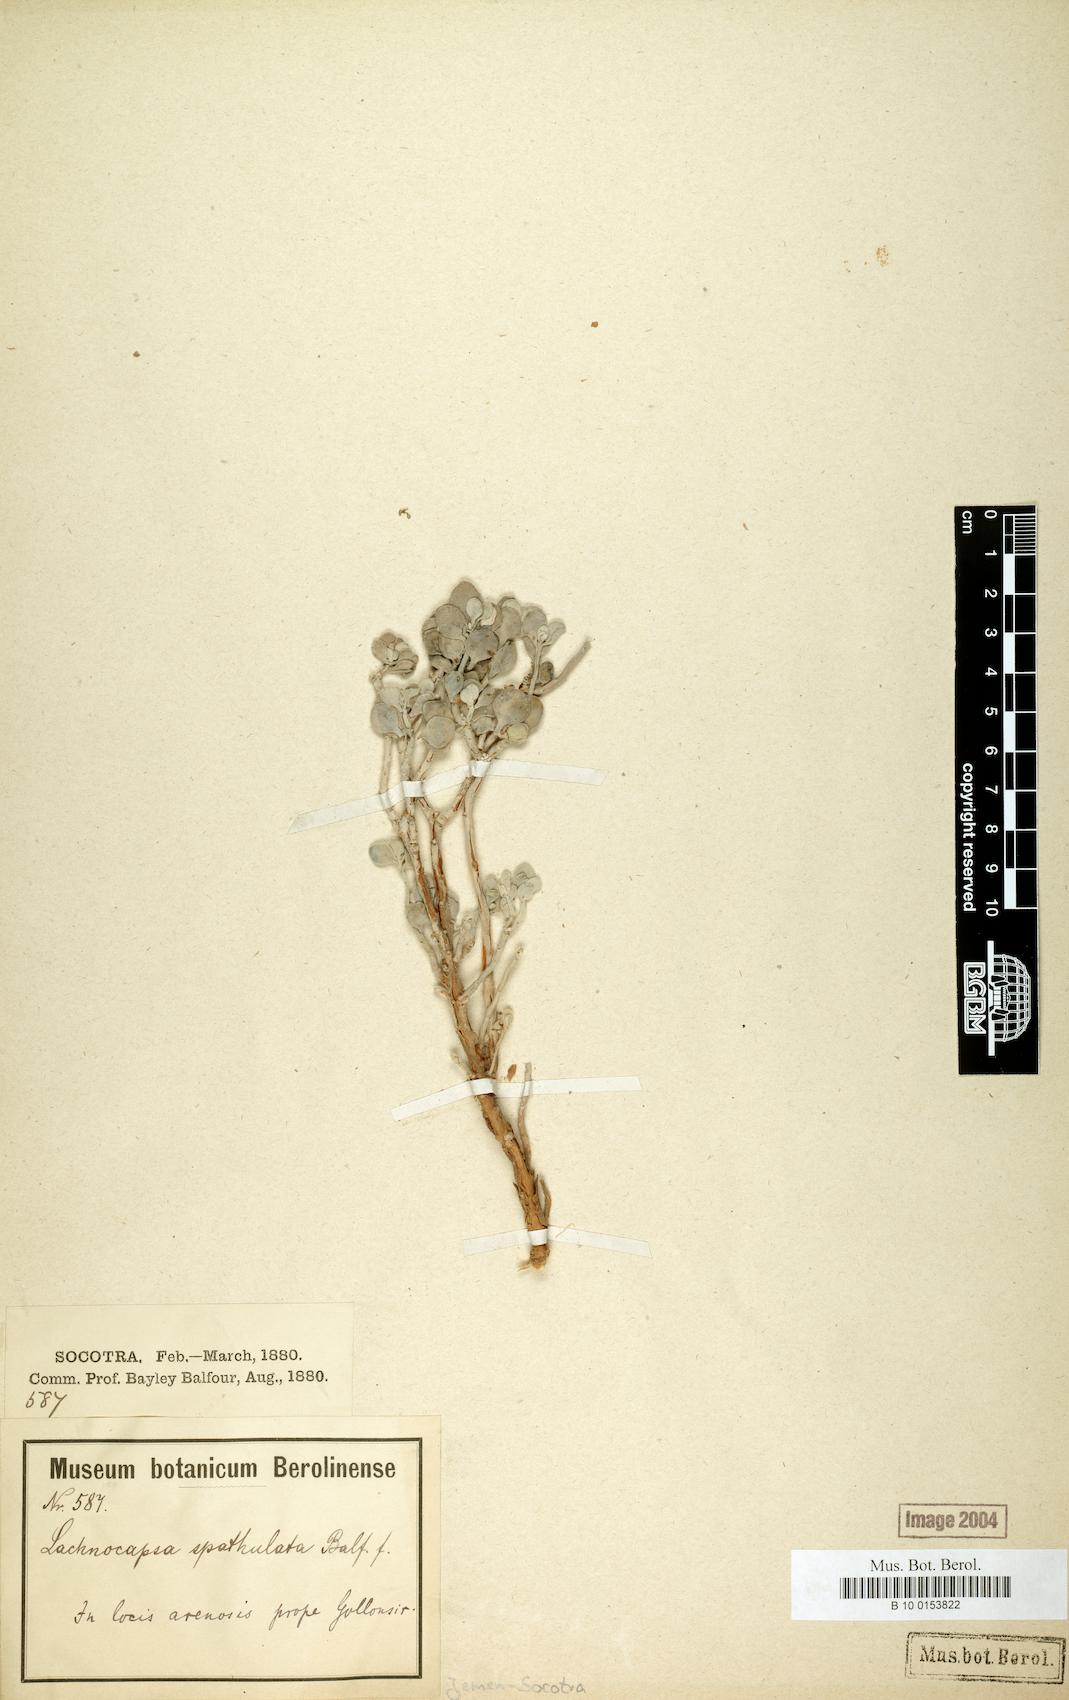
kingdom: Plantae
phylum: Tracheophyta
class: Magnoliopsida
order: Brassicales
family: Brassicaceae
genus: Lachnocapsa
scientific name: Lachnocapsa spathulata
